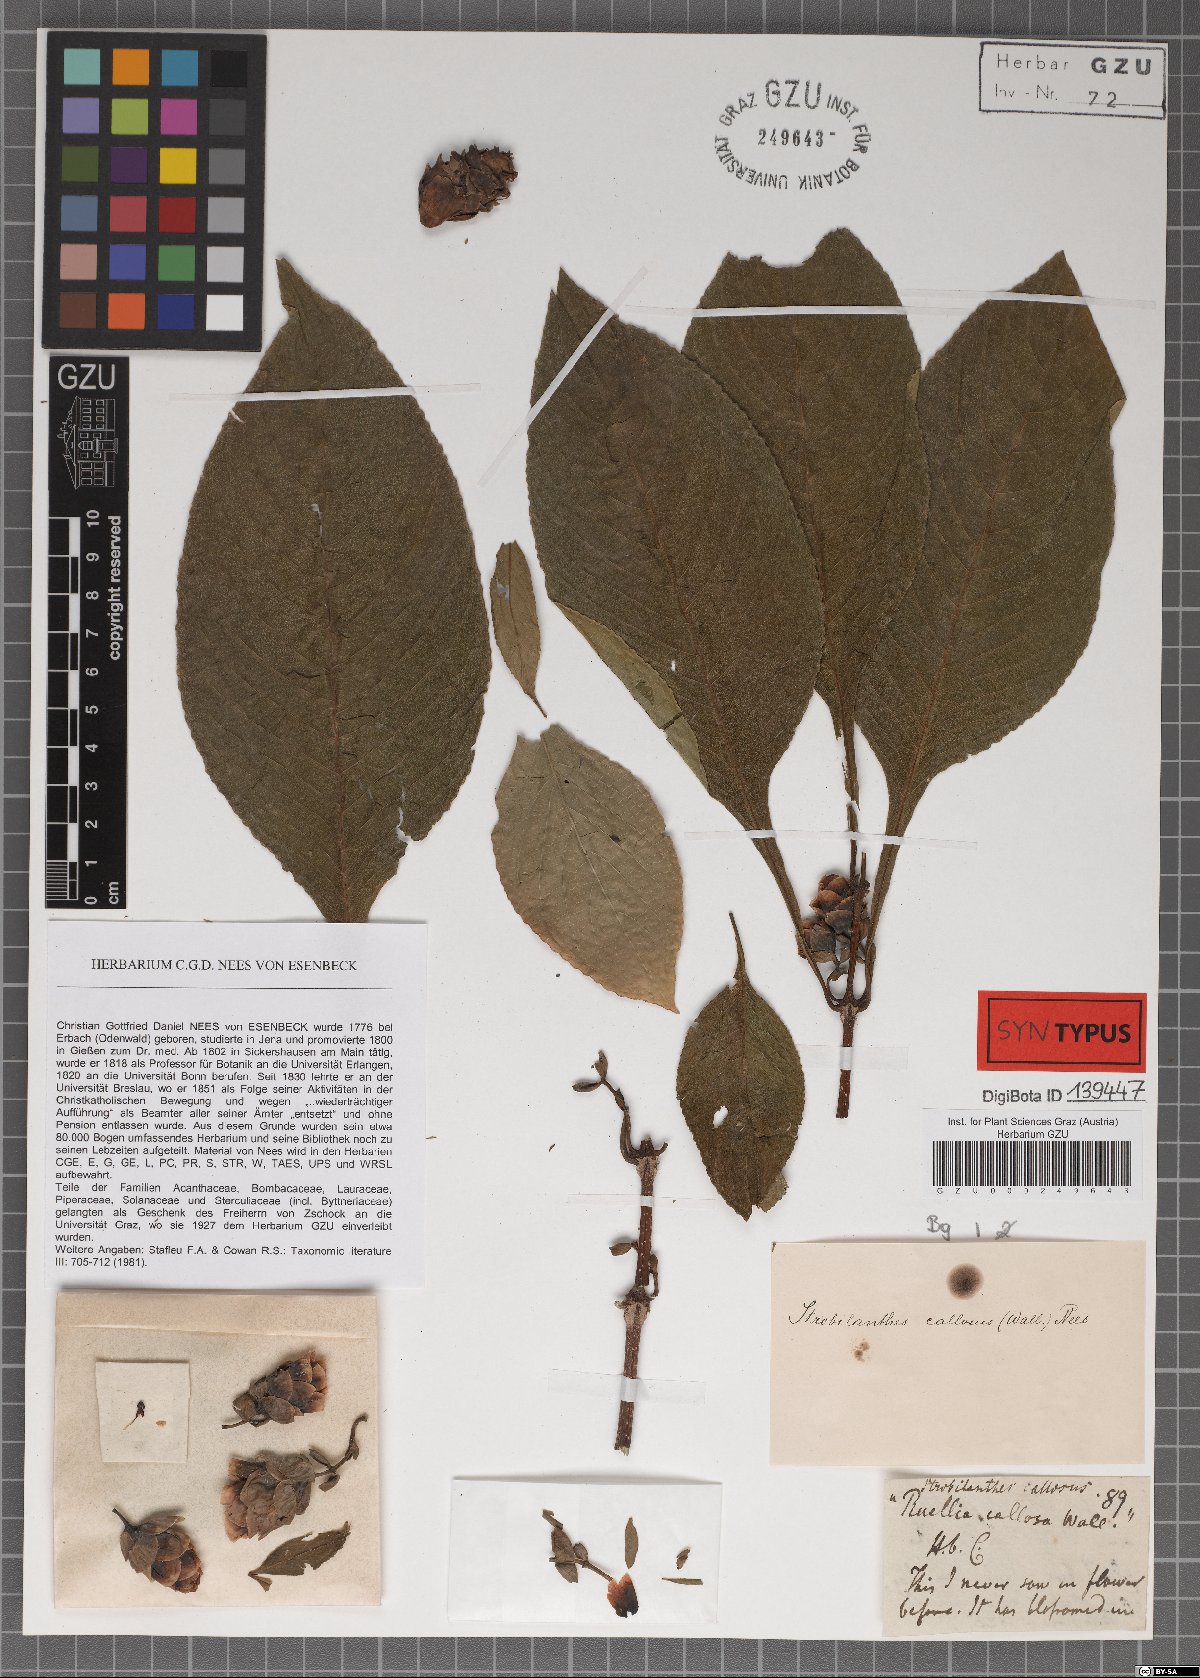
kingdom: Plantae
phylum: Tracheophyta
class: Magnoliopsida
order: Lamiales
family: Acanthaceae
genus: Strobilanthes
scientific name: Strobilanthes callosa
